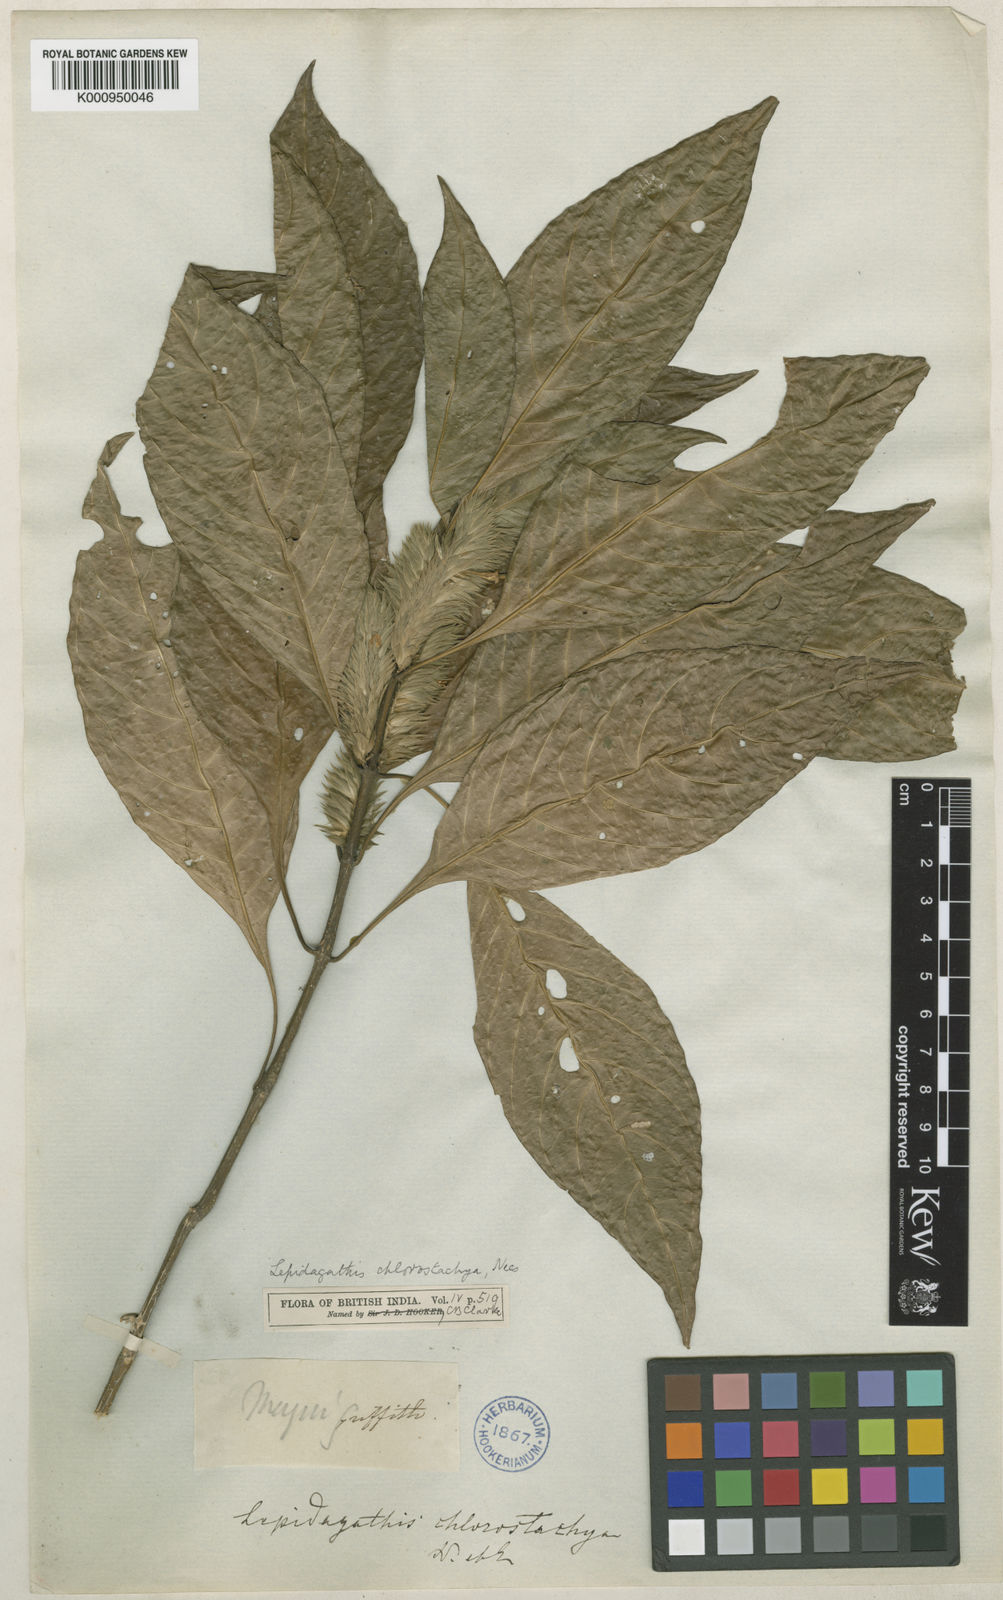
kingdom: Plantae
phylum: Tracheophyta
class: Magnoliopsida
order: Lamiales
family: Acanthaceae
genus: Lepidagathis
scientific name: Lepidagathis chlorostachya
